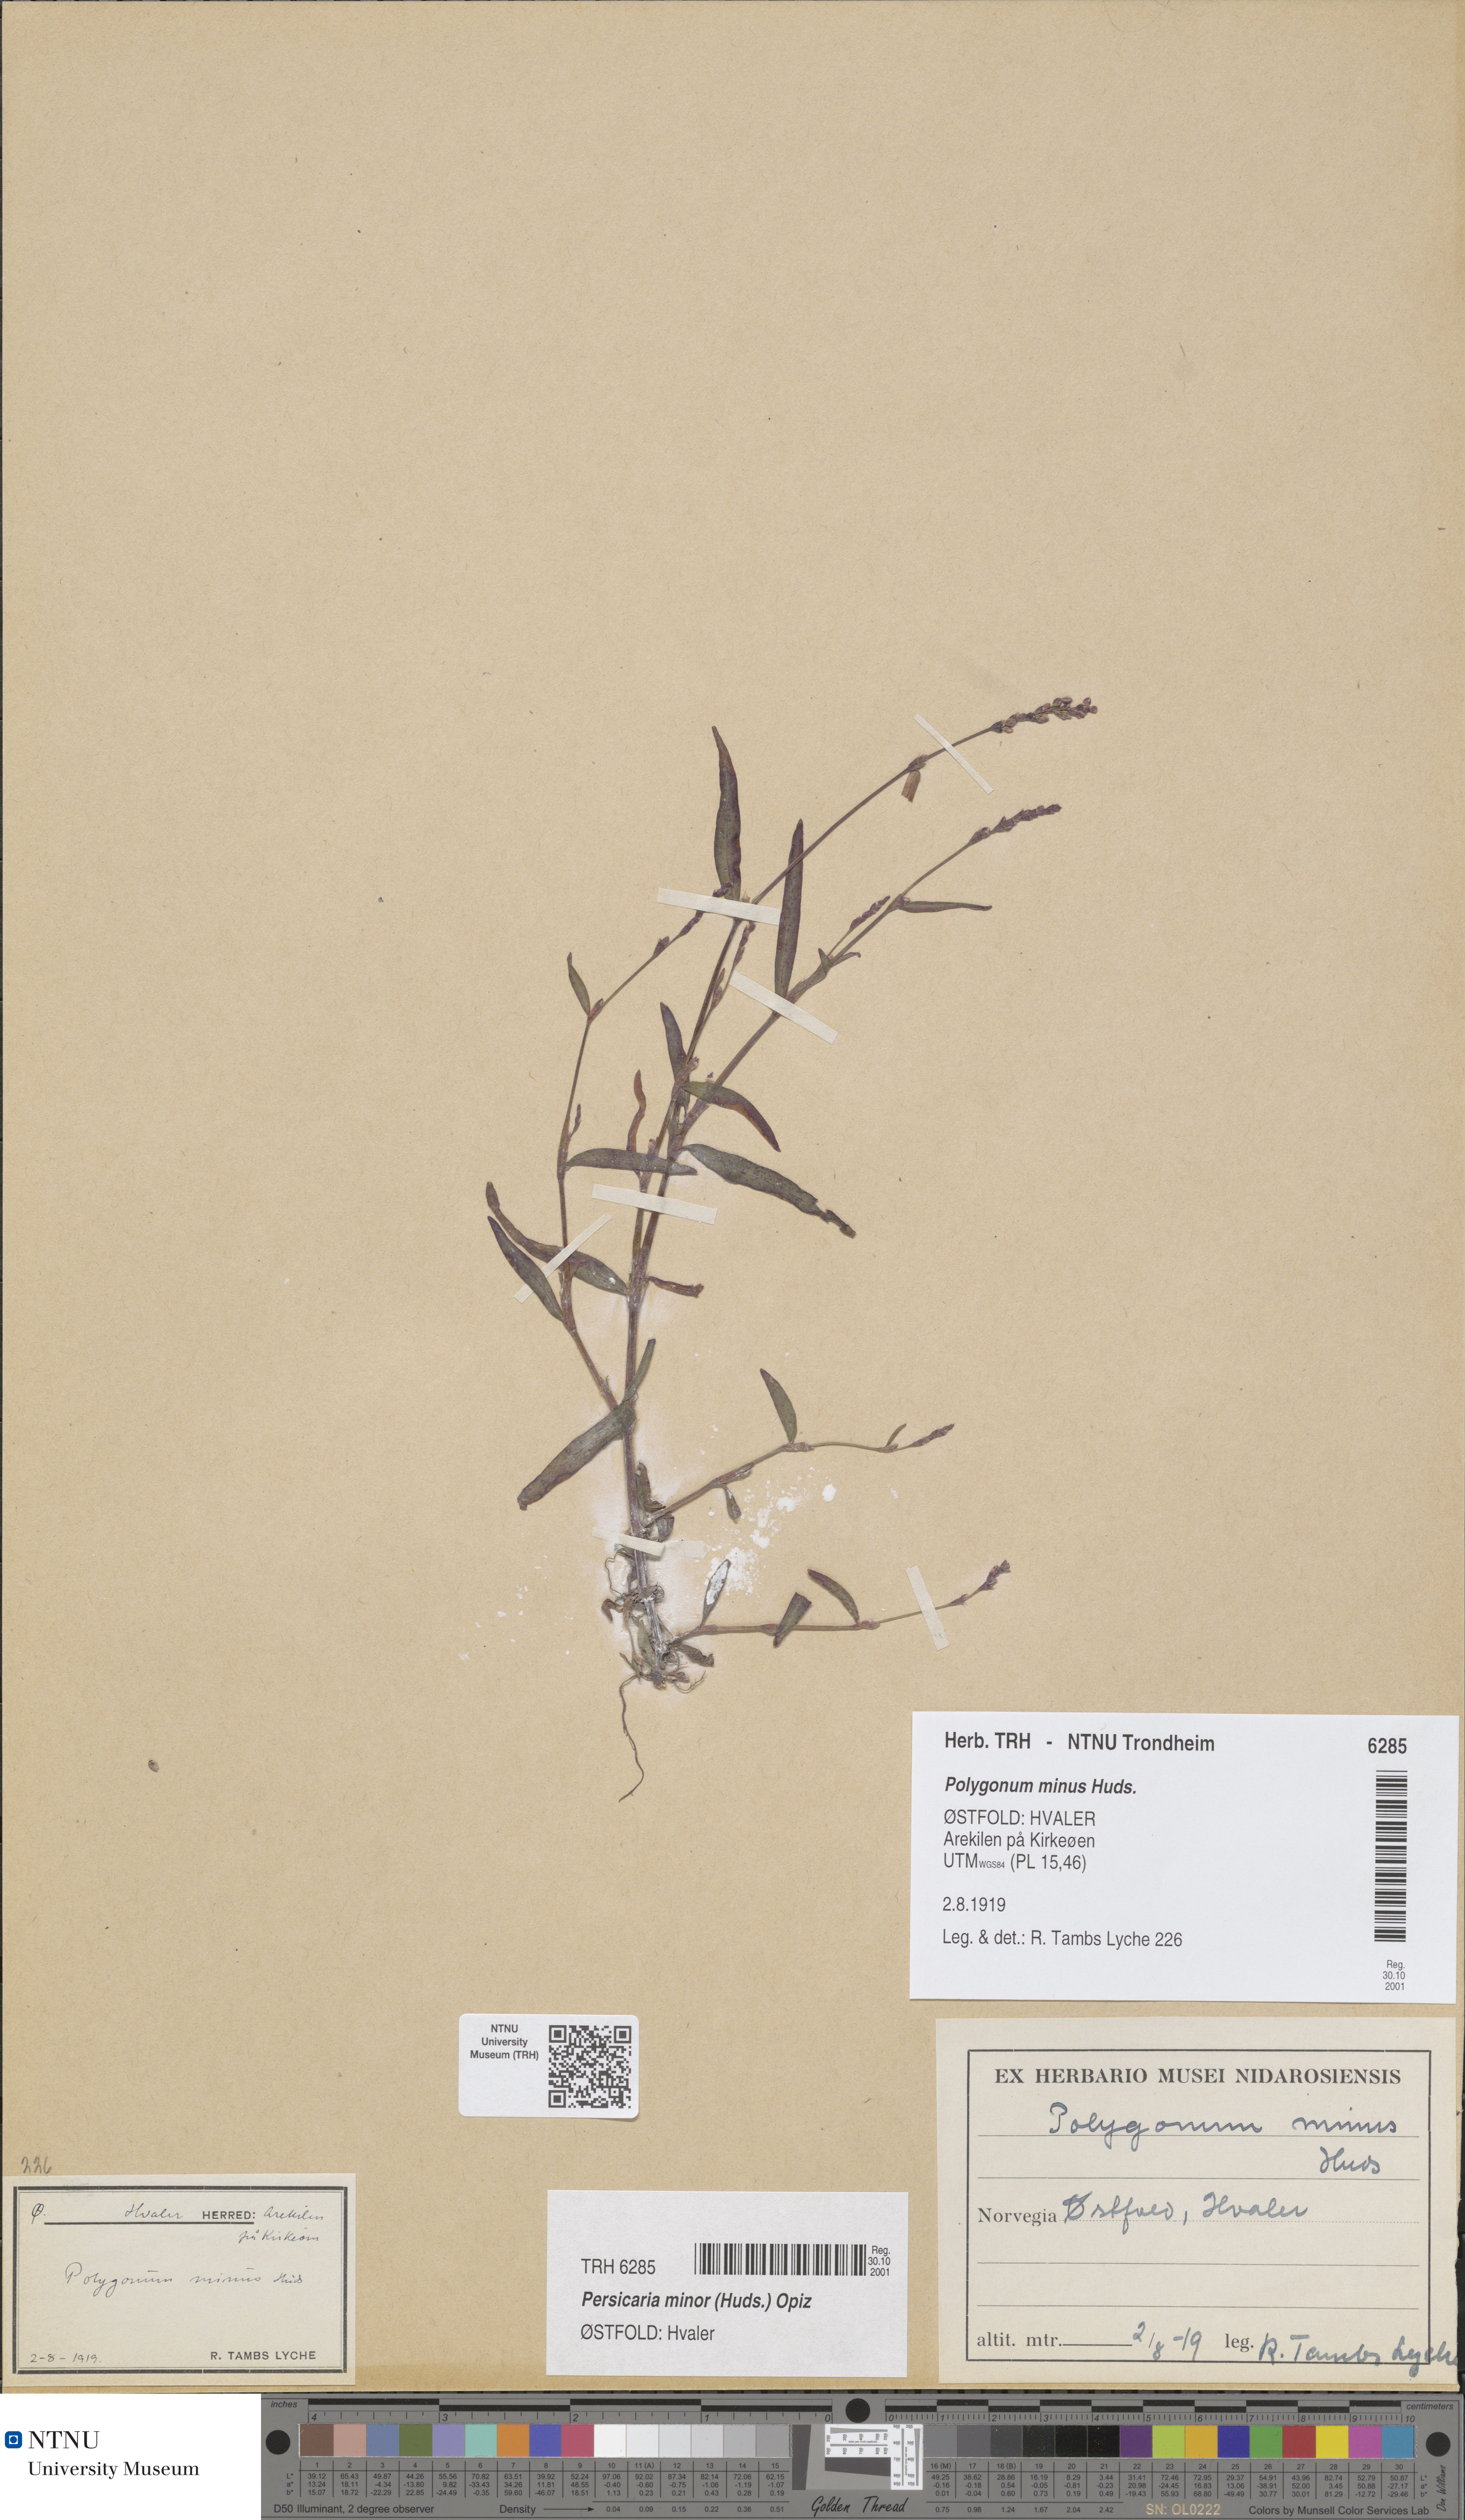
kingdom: Plantae
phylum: Tracheophyta
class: Magnoliopsida
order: Caryophyllales
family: Polygonaceae
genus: Persicaria
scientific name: Persicaria minor
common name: Small water-pepper
